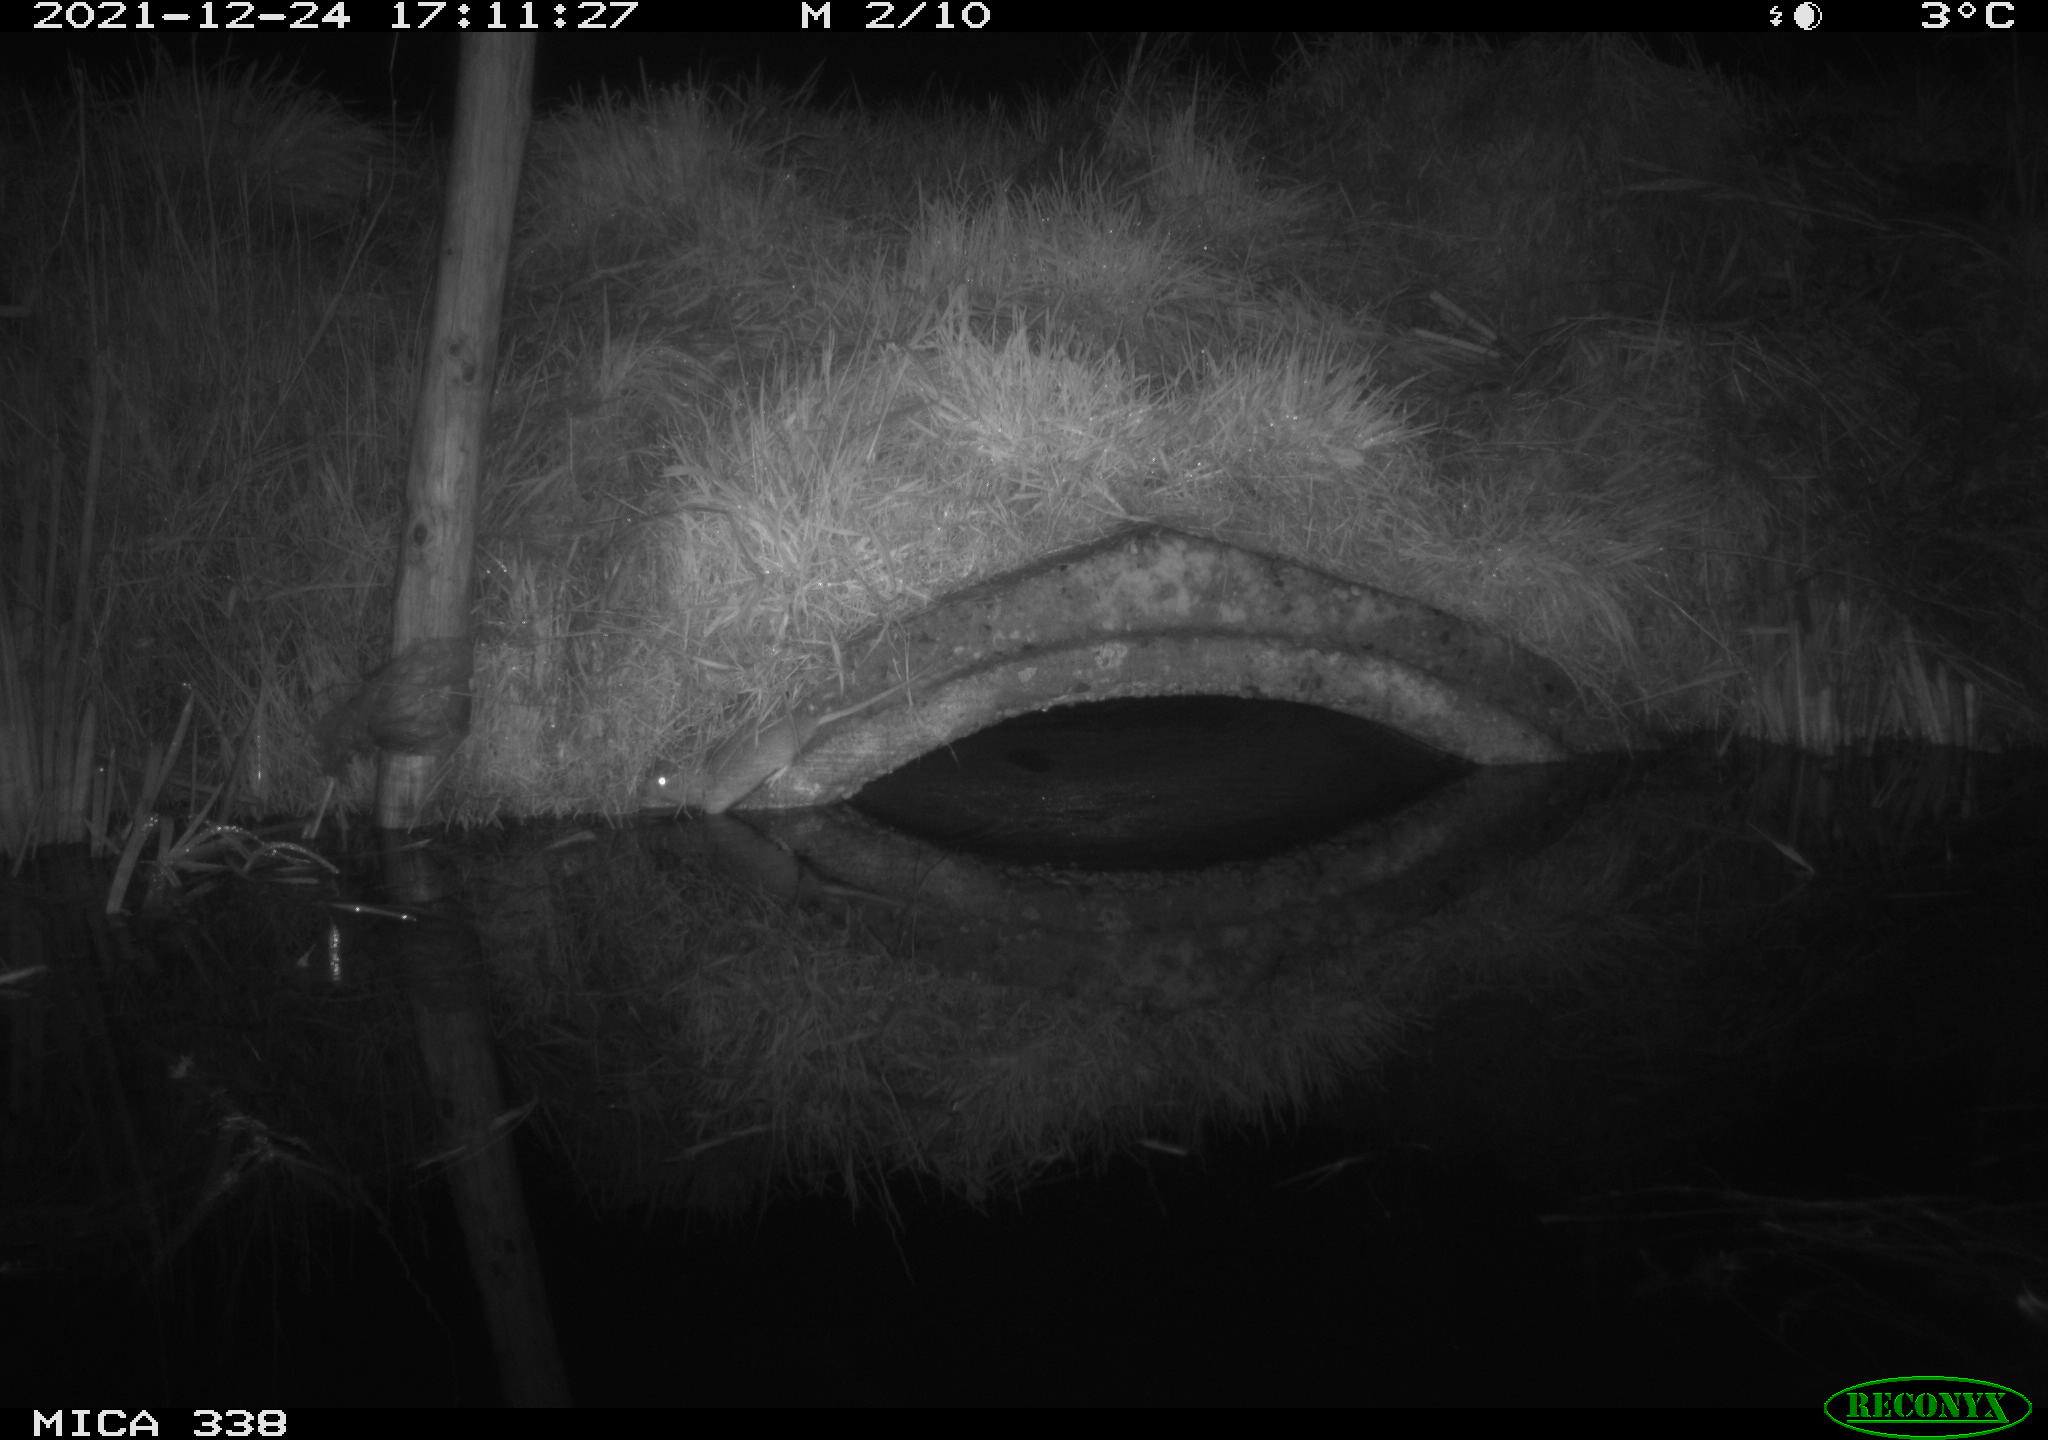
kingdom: Animalia
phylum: Chordata
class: Mammalia
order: Rodentia
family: Muridae
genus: Rattus
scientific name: Rattus norvegicus
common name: Brown rat
